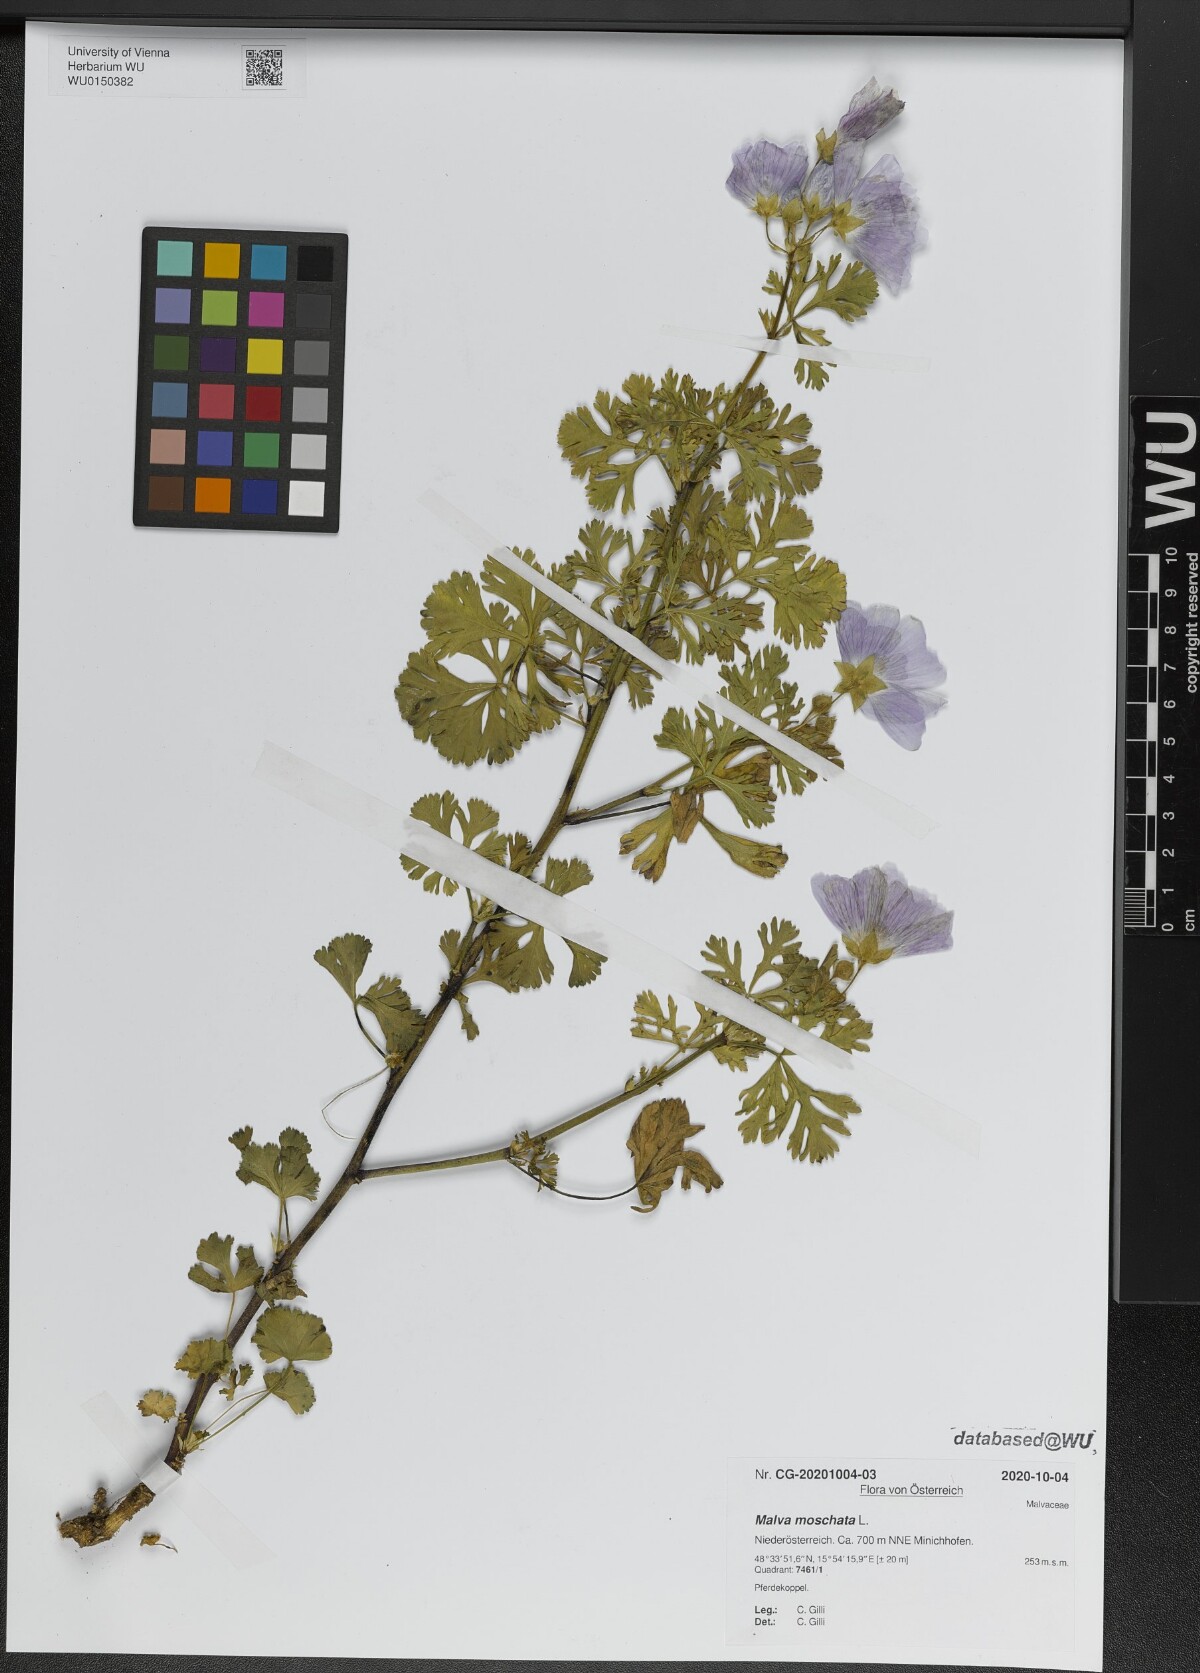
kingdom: Plantae
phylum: Tracheophyta
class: Magnoliopsida
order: Malvales
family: Malvaceae
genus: Malva
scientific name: Malva moschata
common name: Musk mallow
